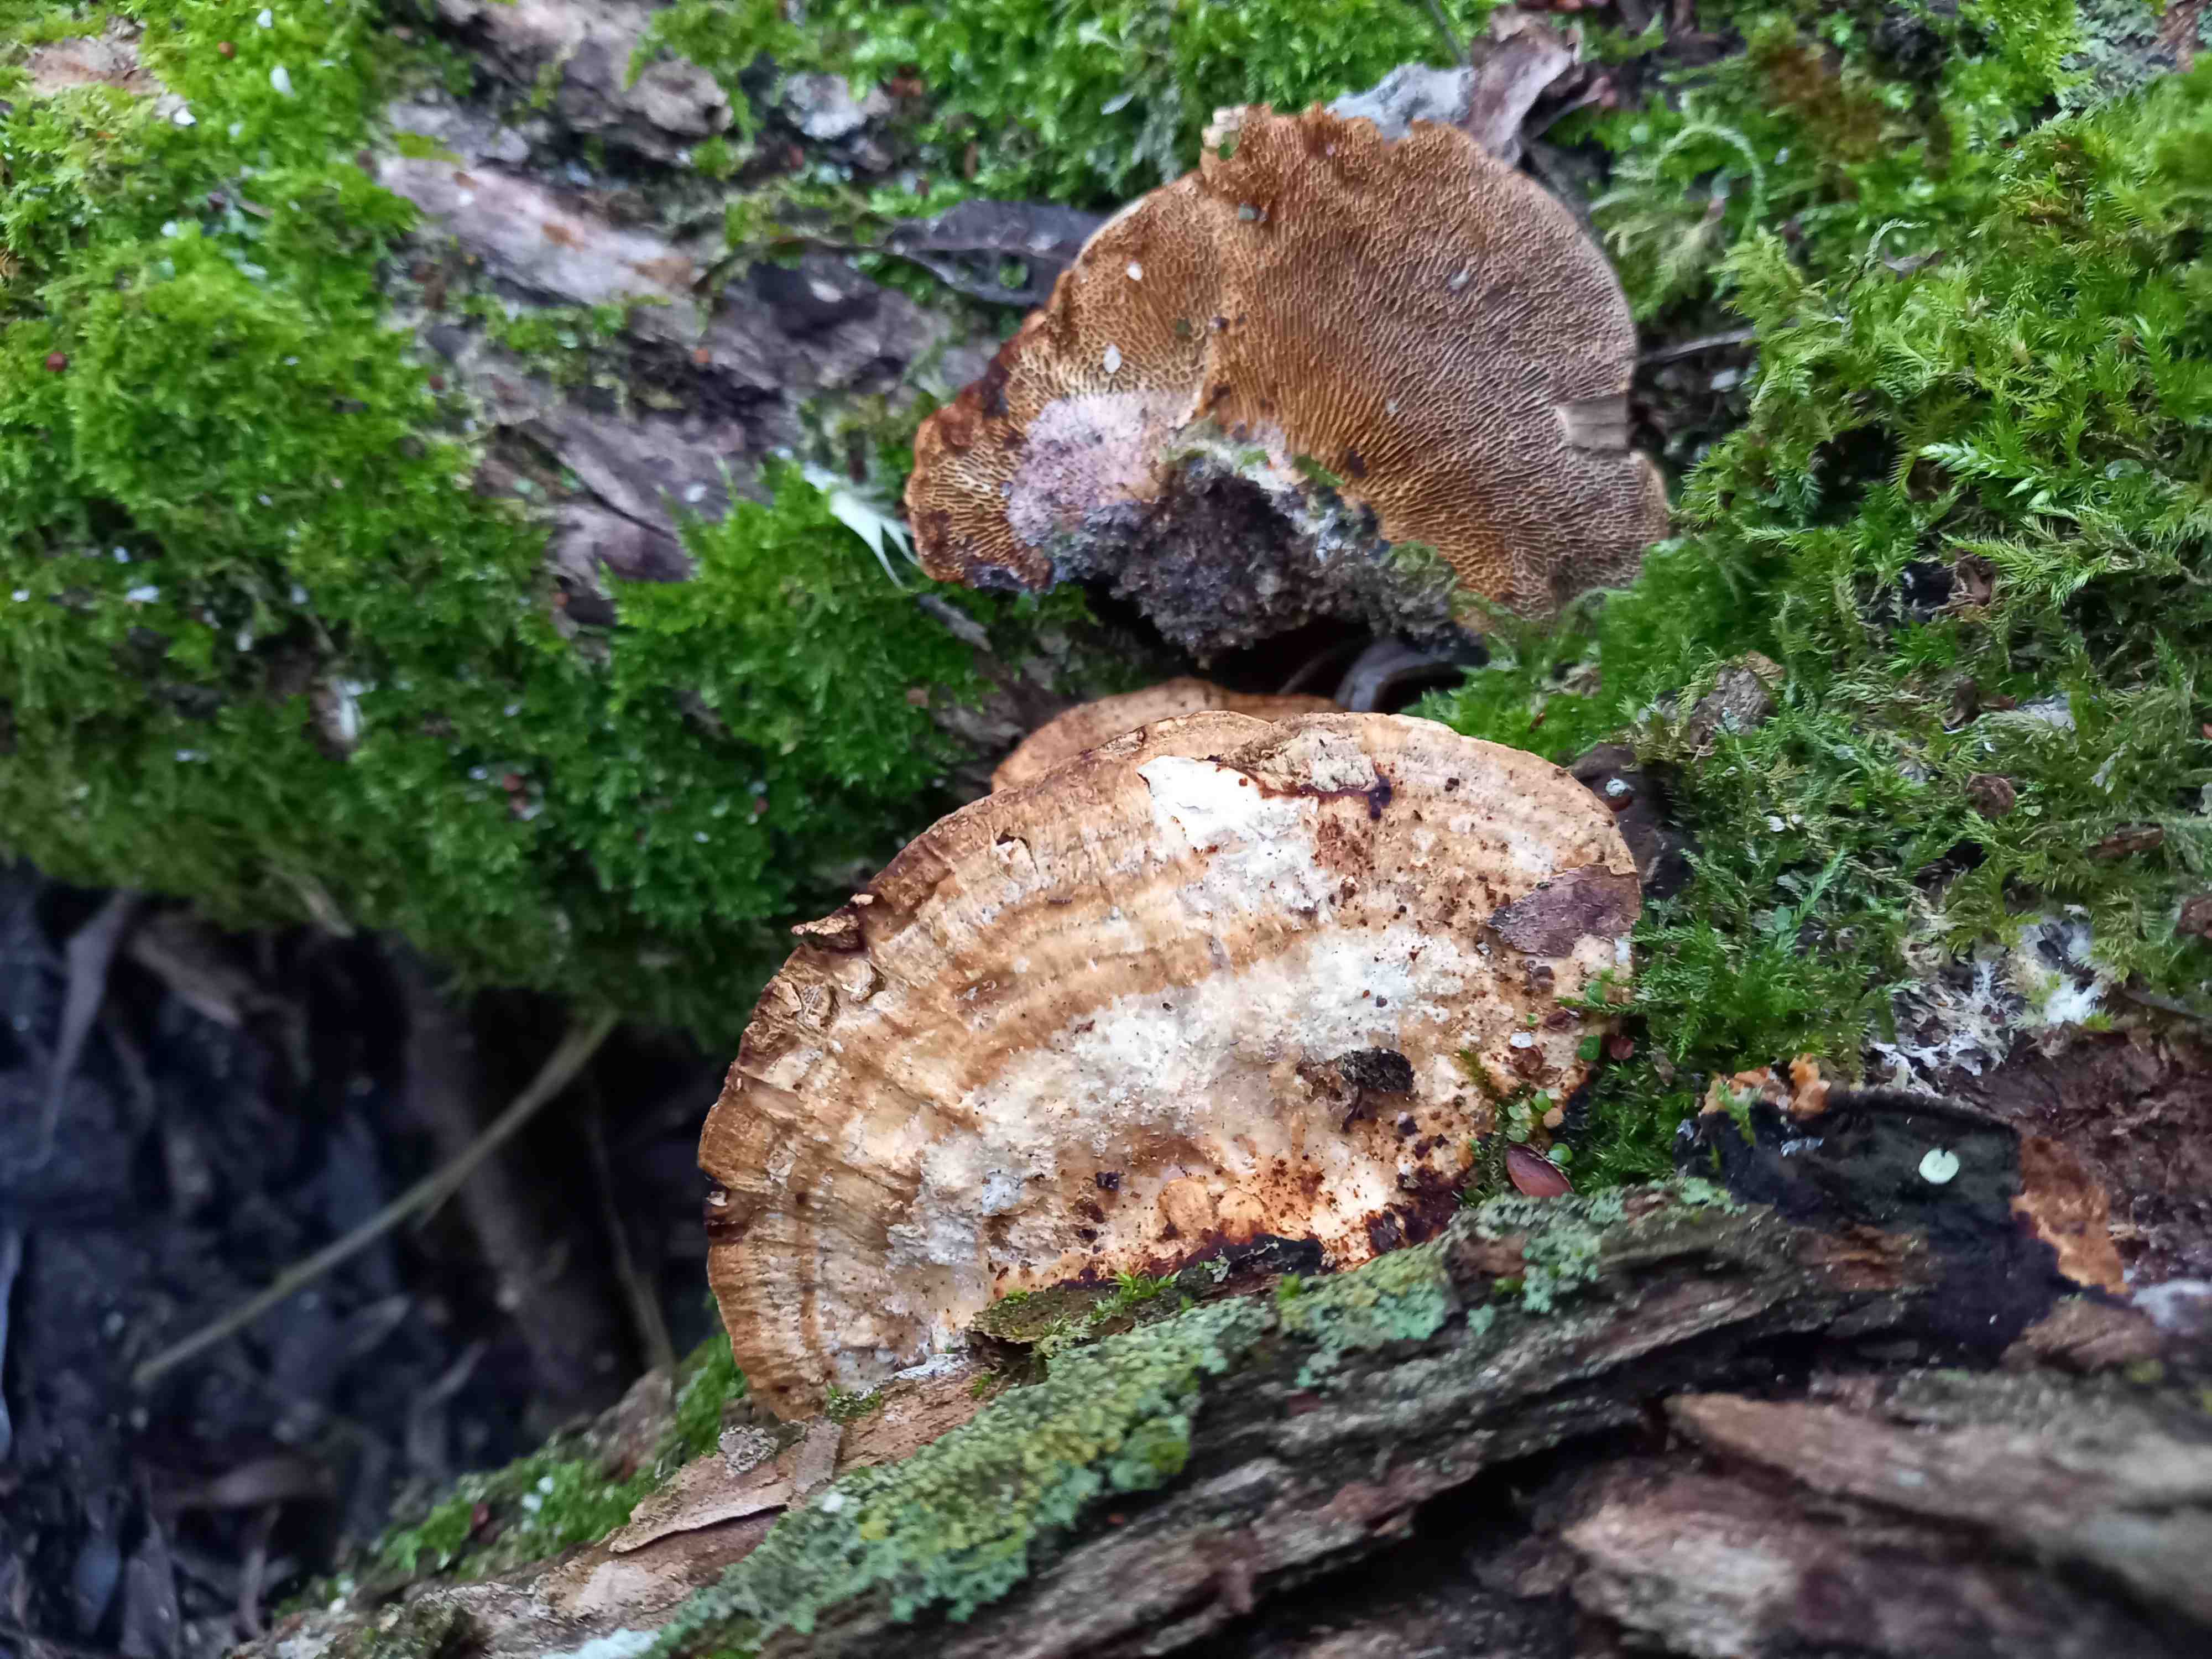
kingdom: Fungi
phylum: Basidiomycota
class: Agaricomycetes
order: Polyporales
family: Polyporaceae
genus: Daedaleopsis
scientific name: Daedaleopsis confragosa
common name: rødmende læderporesvamp
